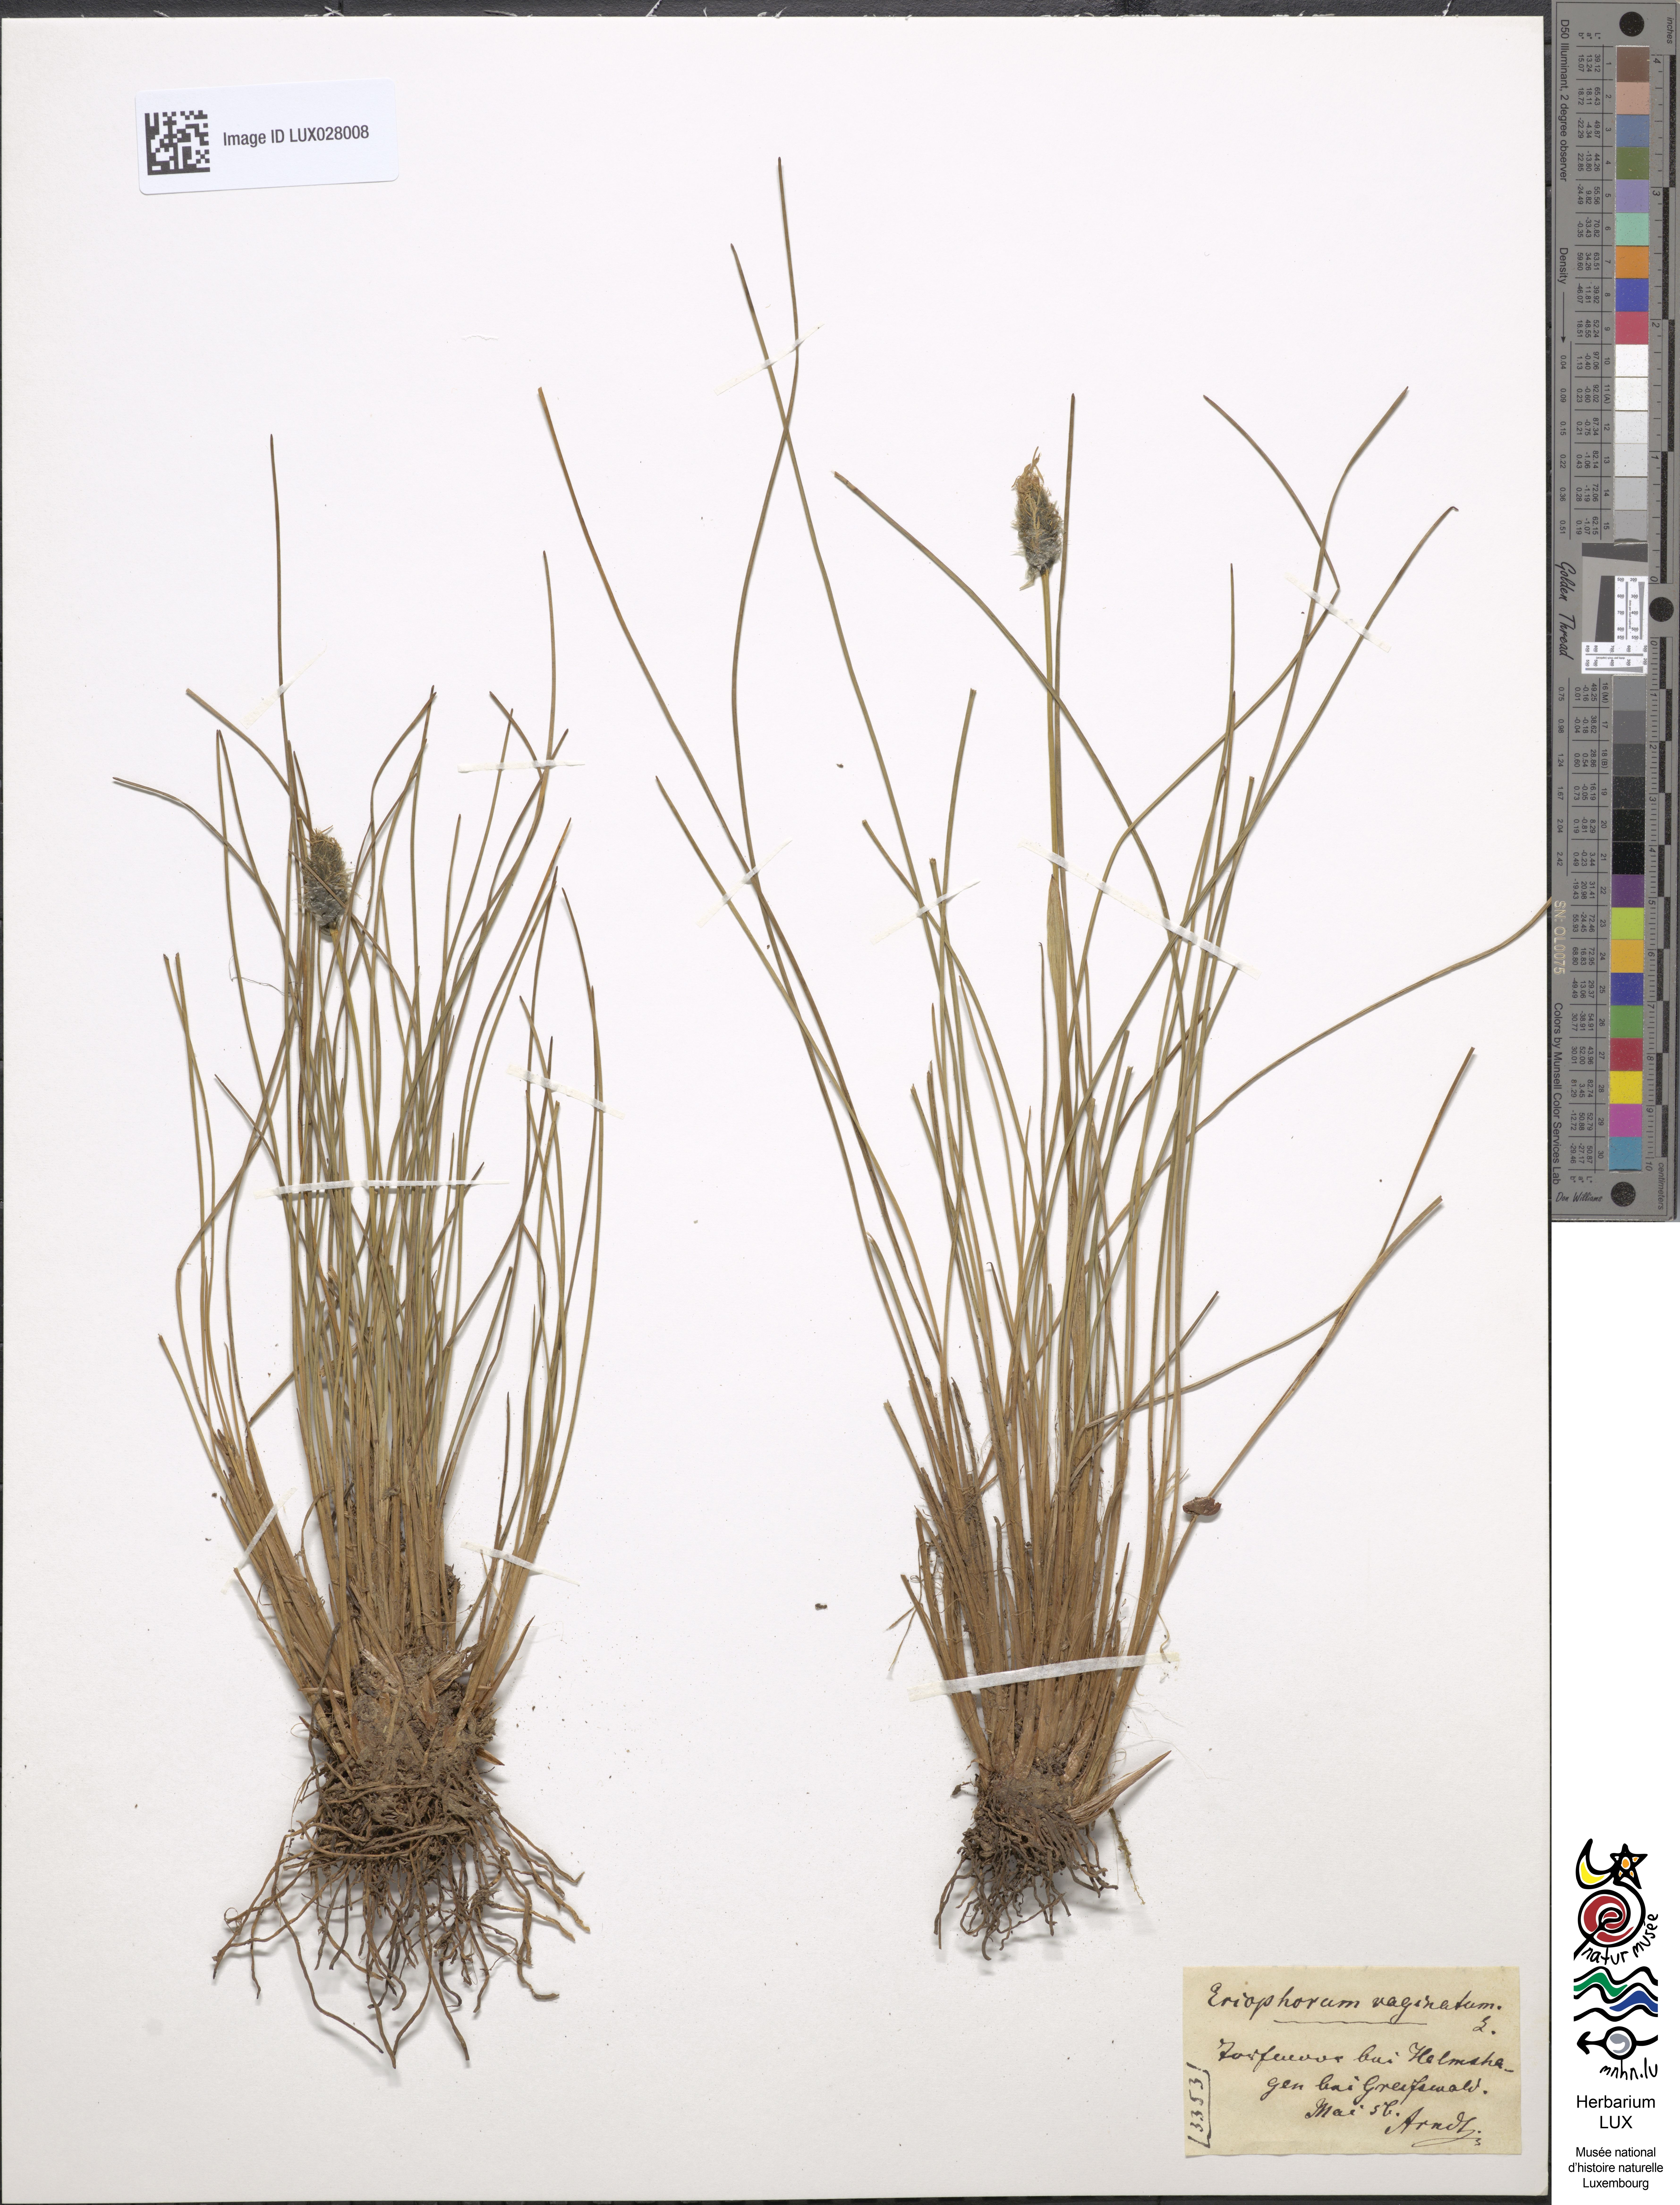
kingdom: Plantae
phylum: Tracheophyta
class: Liliopsida
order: Poales
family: Cyperaceae
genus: Eriophorum
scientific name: Eriophorum vaginatum
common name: Hare's-tail cottongrass
